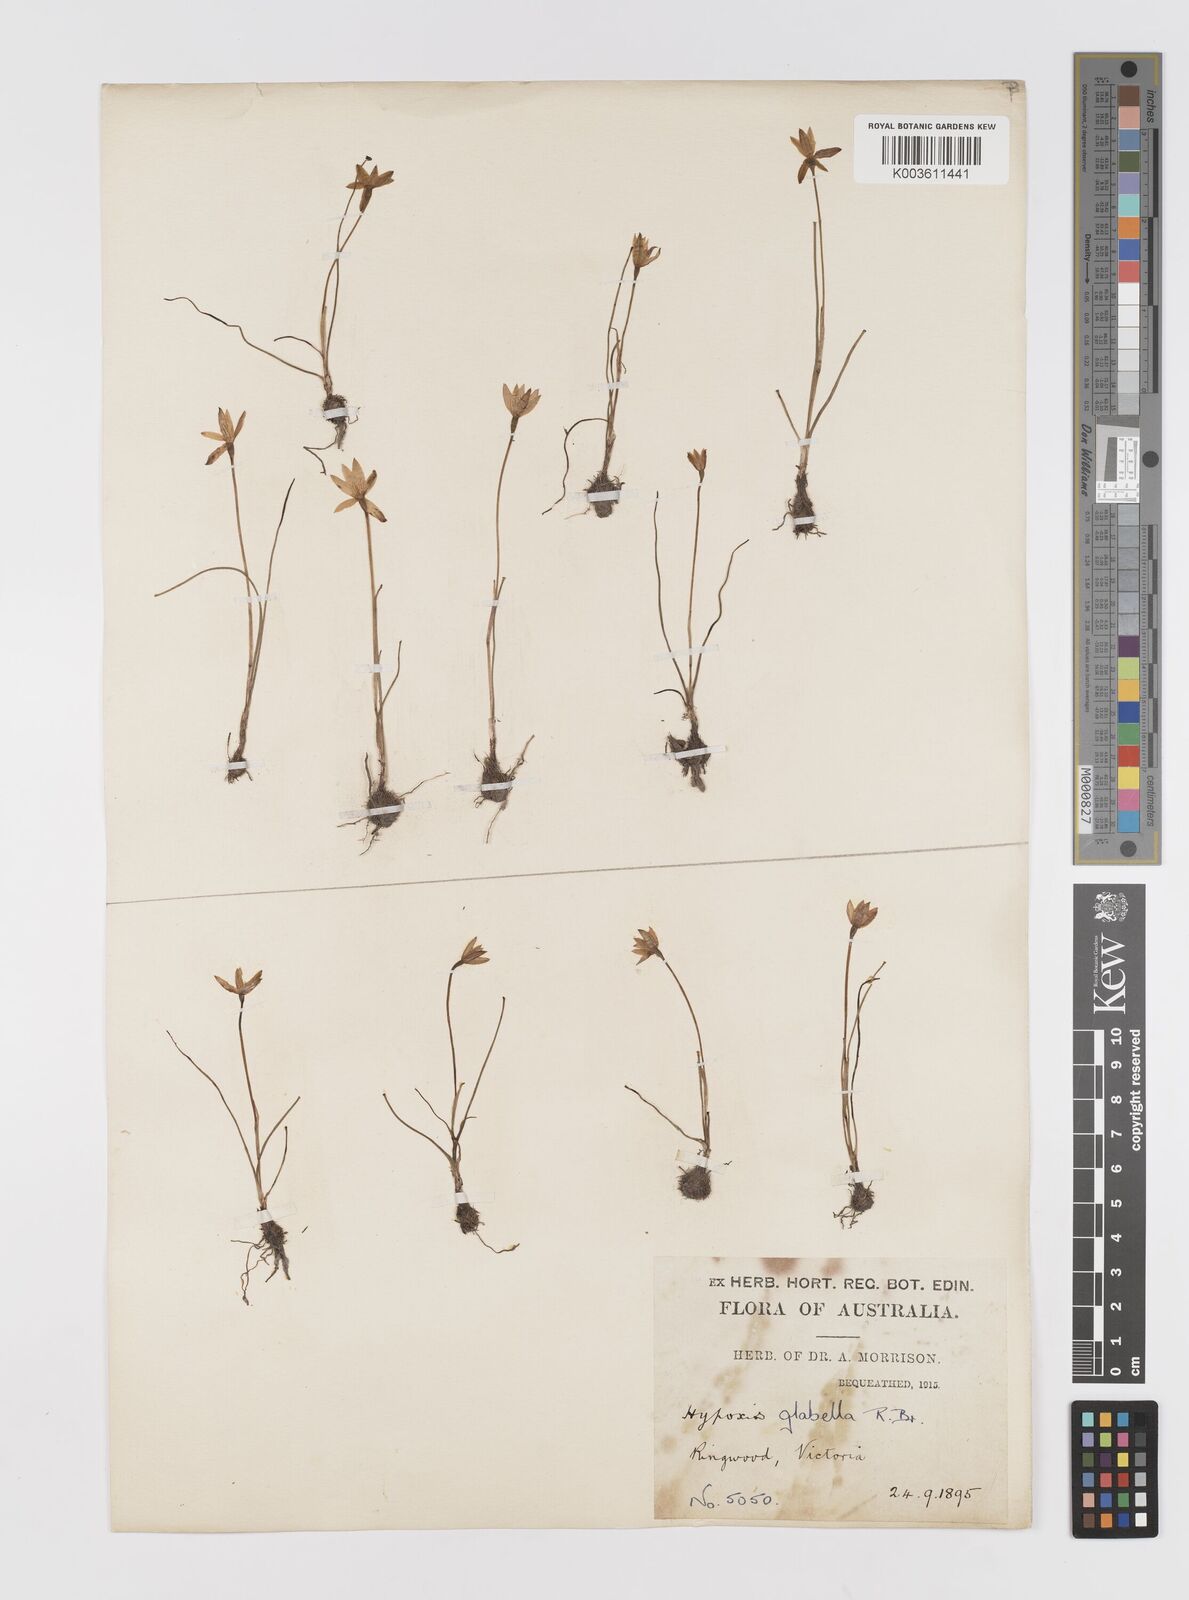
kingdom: Plantae
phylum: Tracheophyta
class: Liliopsida
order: Asparagales
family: Hypoxidaceae
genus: Pauridia
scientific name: Pauridia glabella
